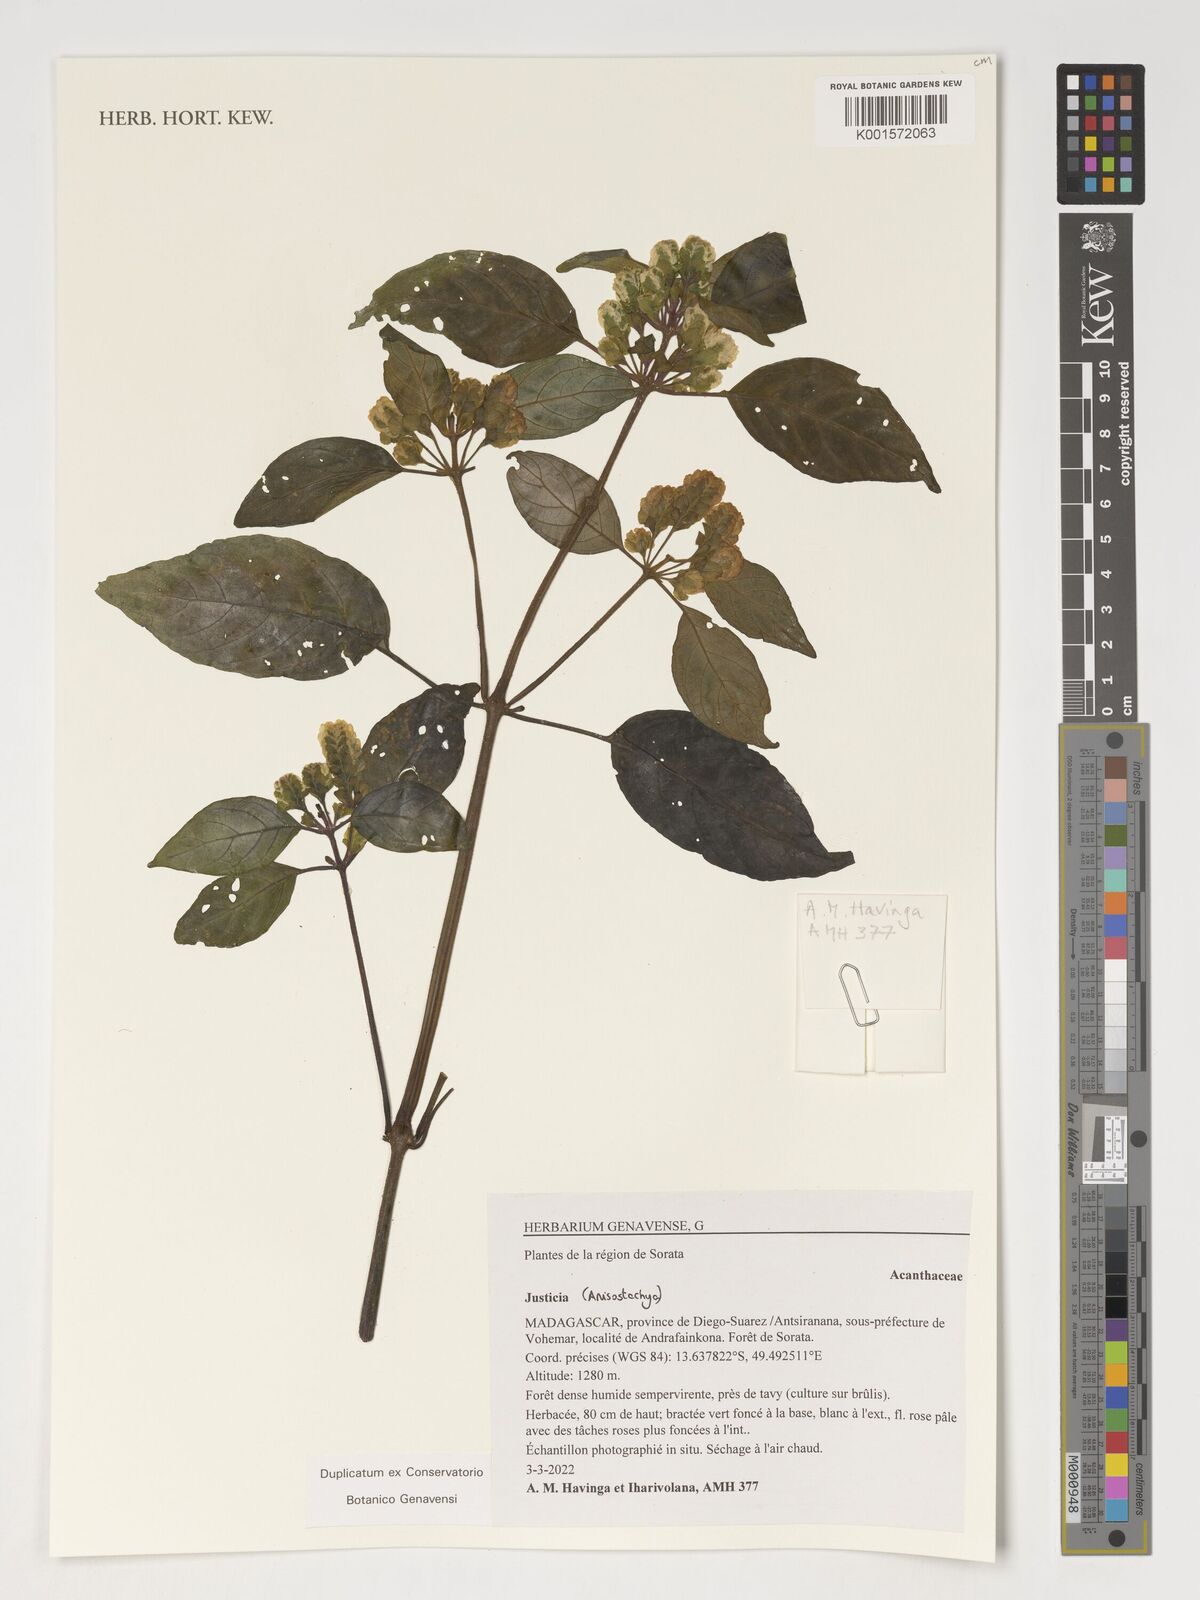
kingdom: Plantae
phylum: Tracheophyta
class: Magnoliopsida
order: Lamiales
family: Acanthaceae
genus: Justicia
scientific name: Justicia
